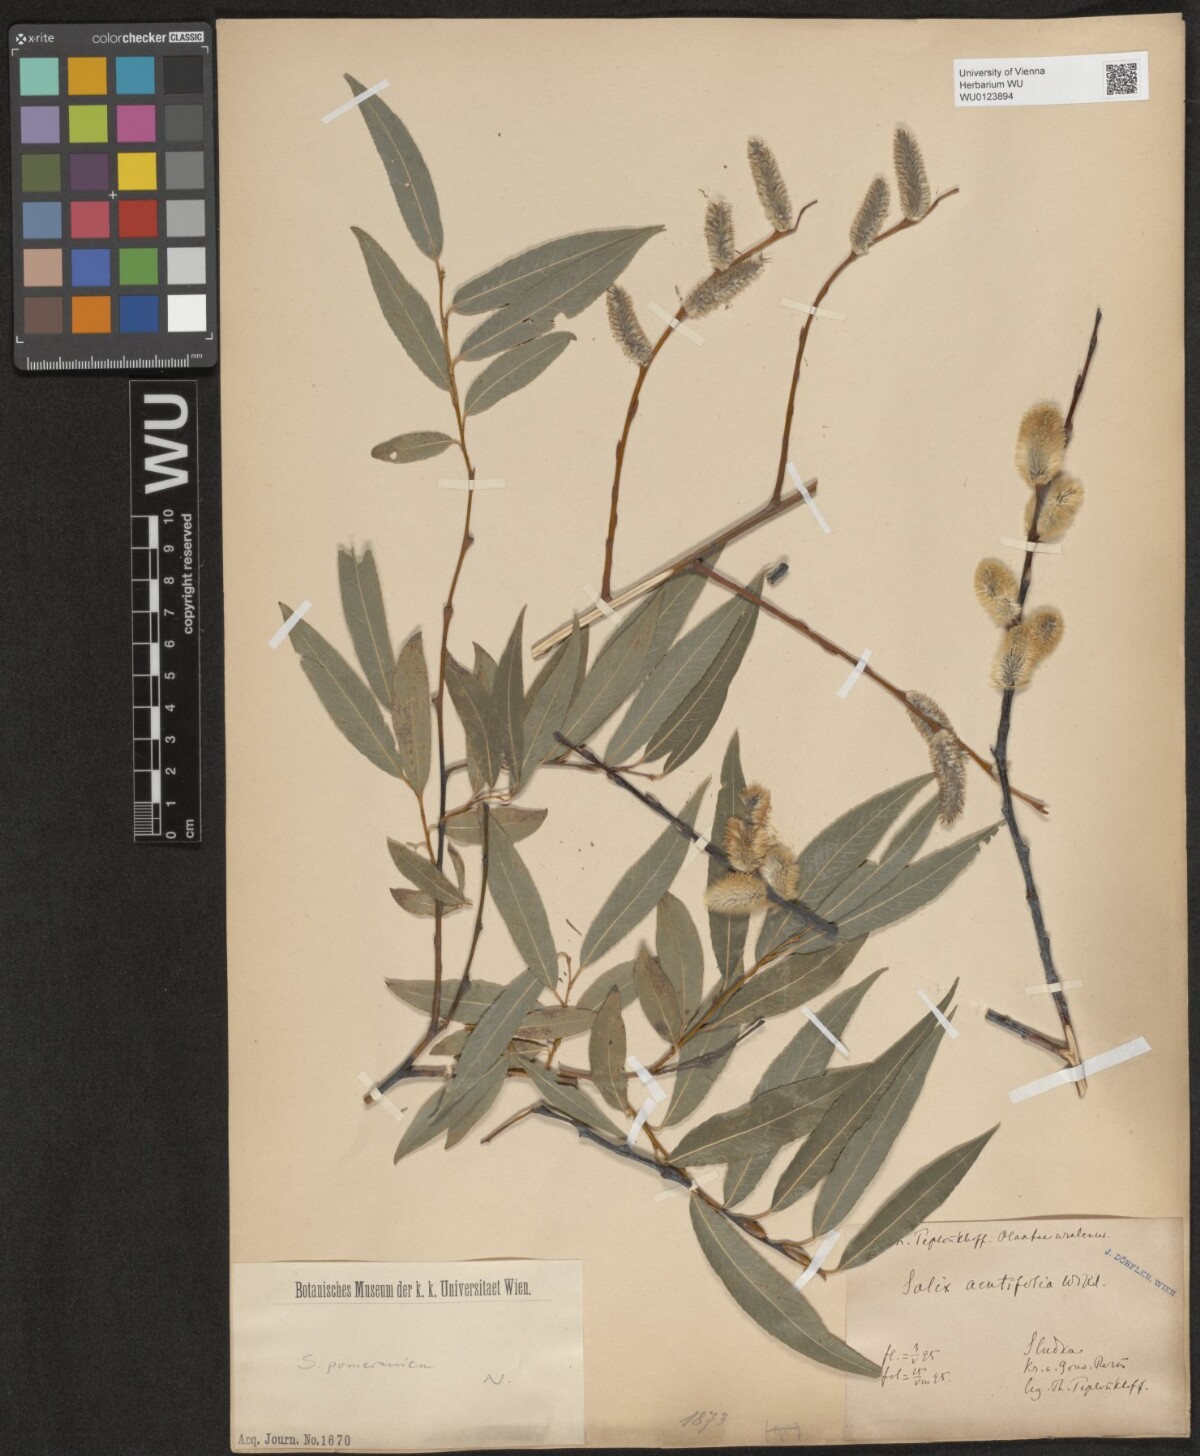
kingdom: Plantae
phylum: Tracheophyta
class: Magnoliopsida
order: Malpighiales
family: Salicaceae
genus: Salix
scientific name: Salix acutifolia
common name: Siberian violet-willow
